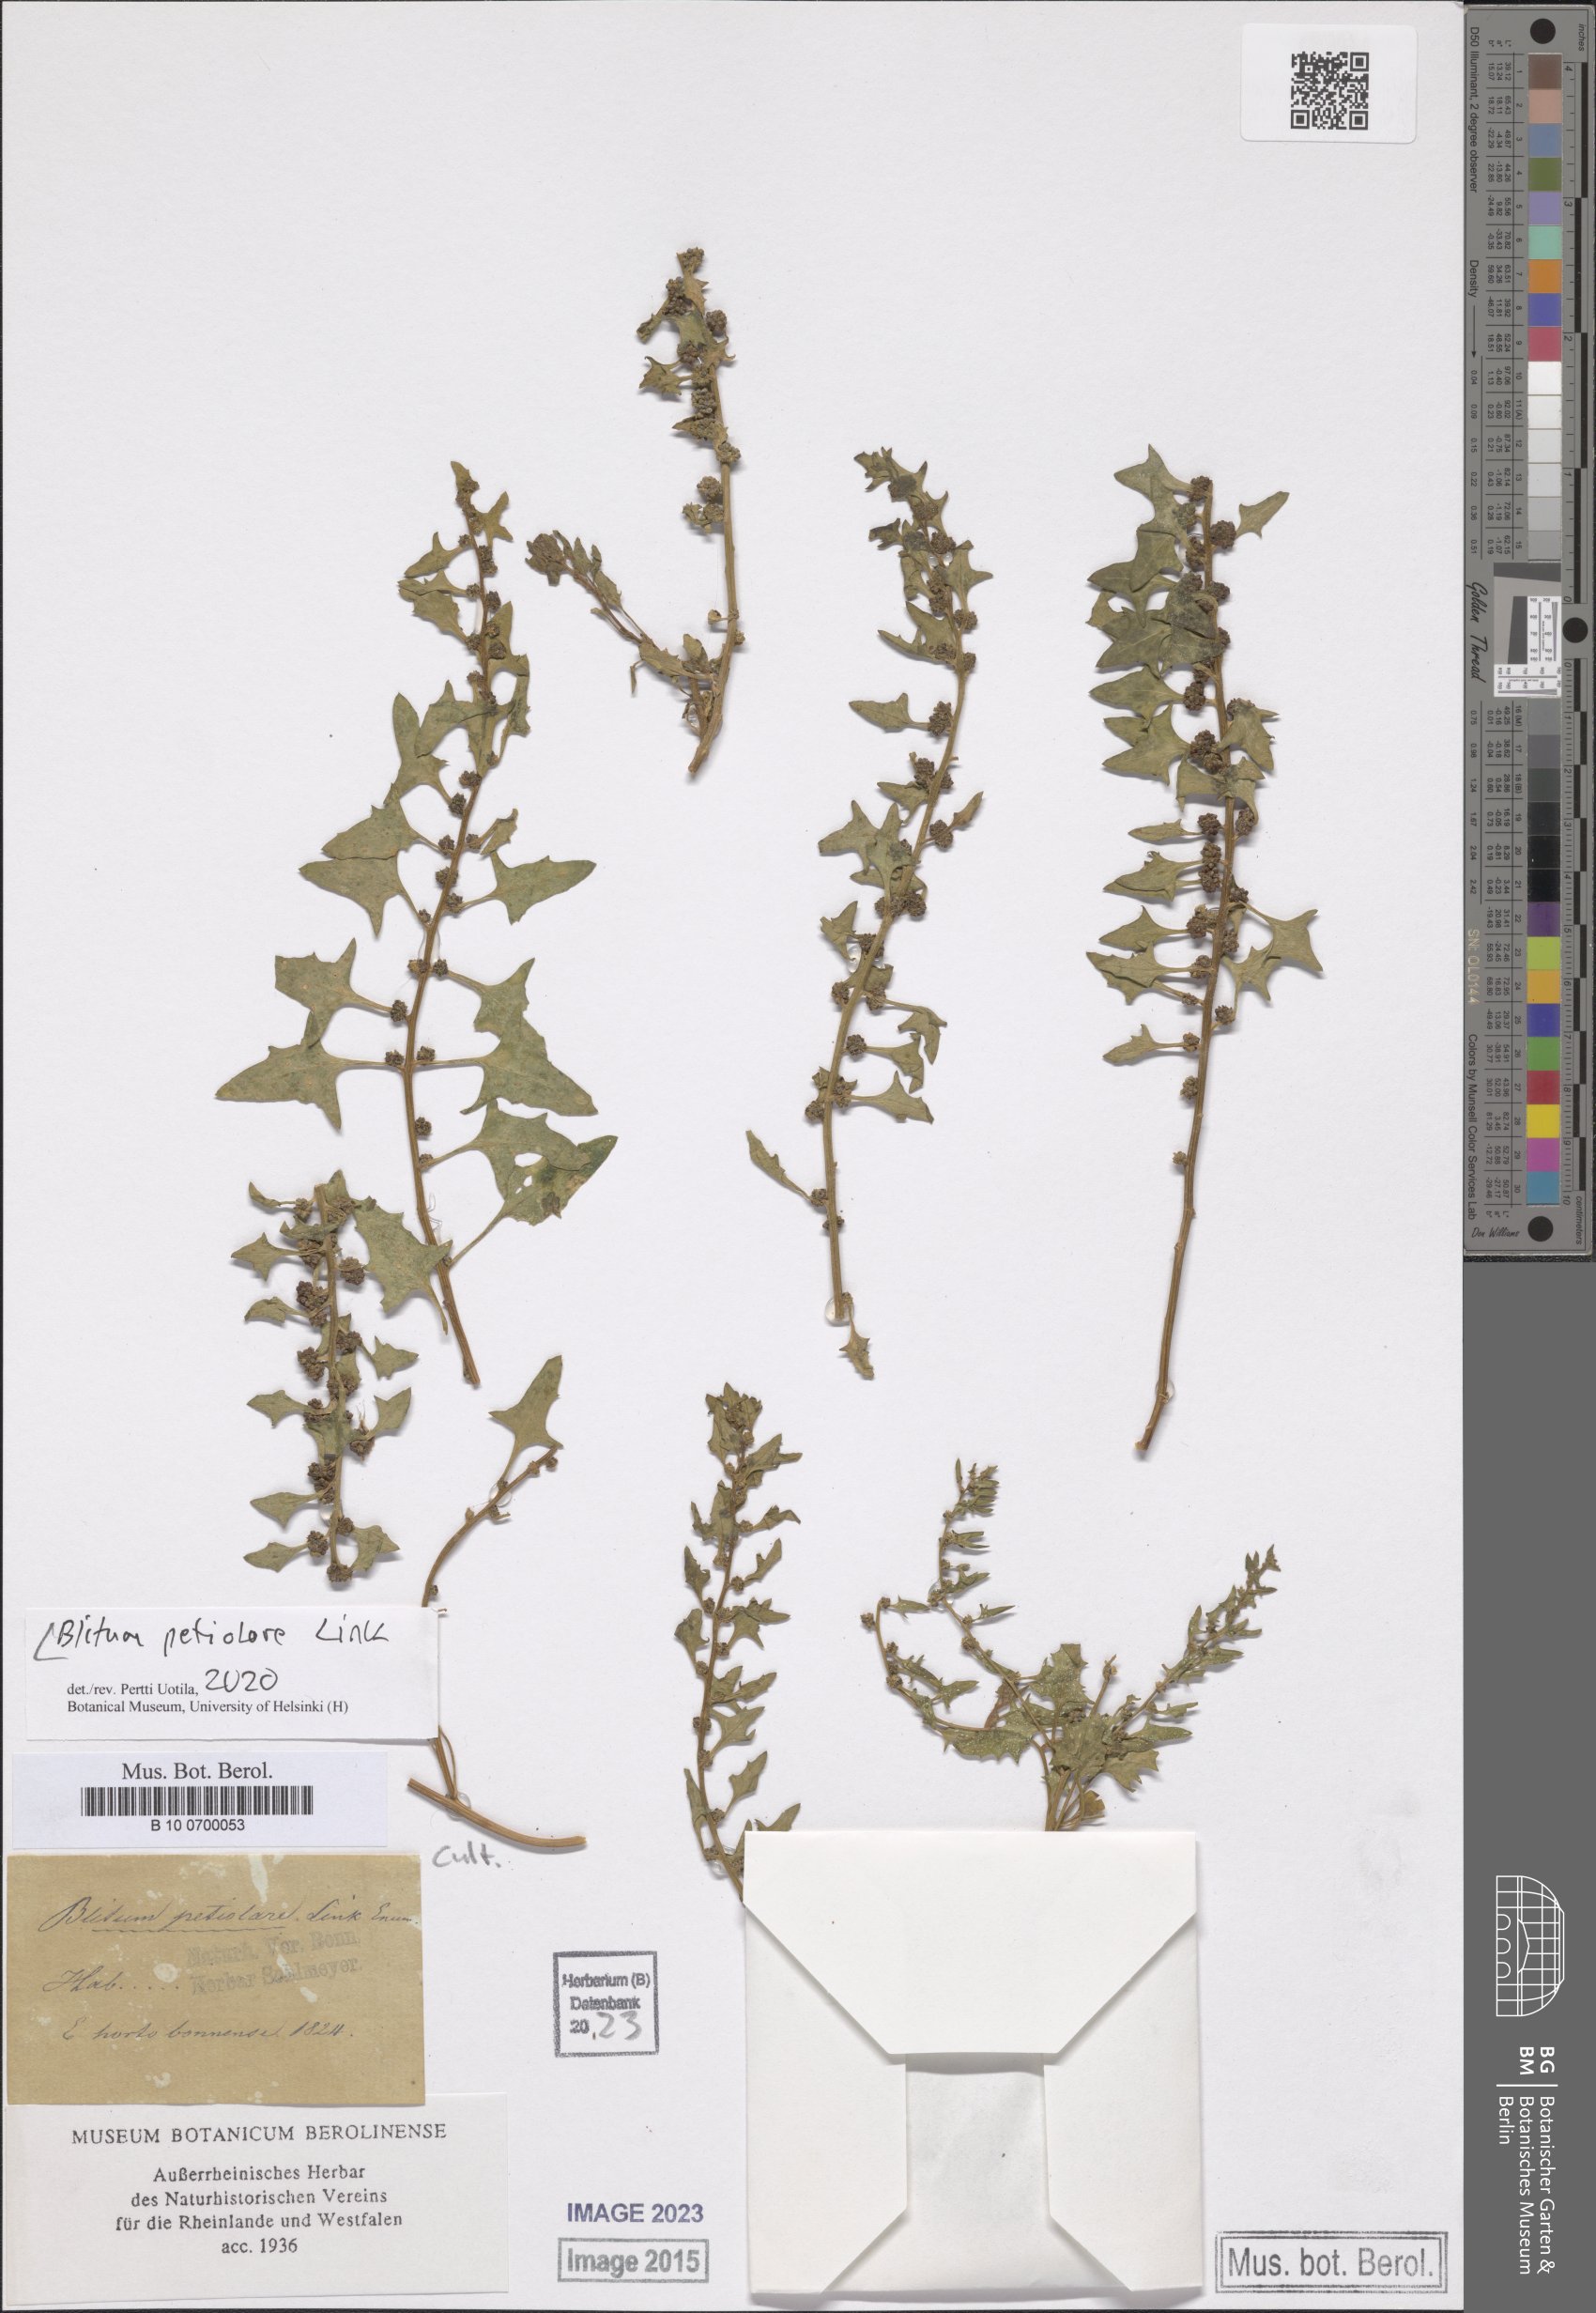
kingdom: Plantae
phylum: Tracheophyta
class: Magnoliopsida
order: Caryophyllales
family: Amaranthaceae
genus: Blitum
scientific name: Blitum petiolare
